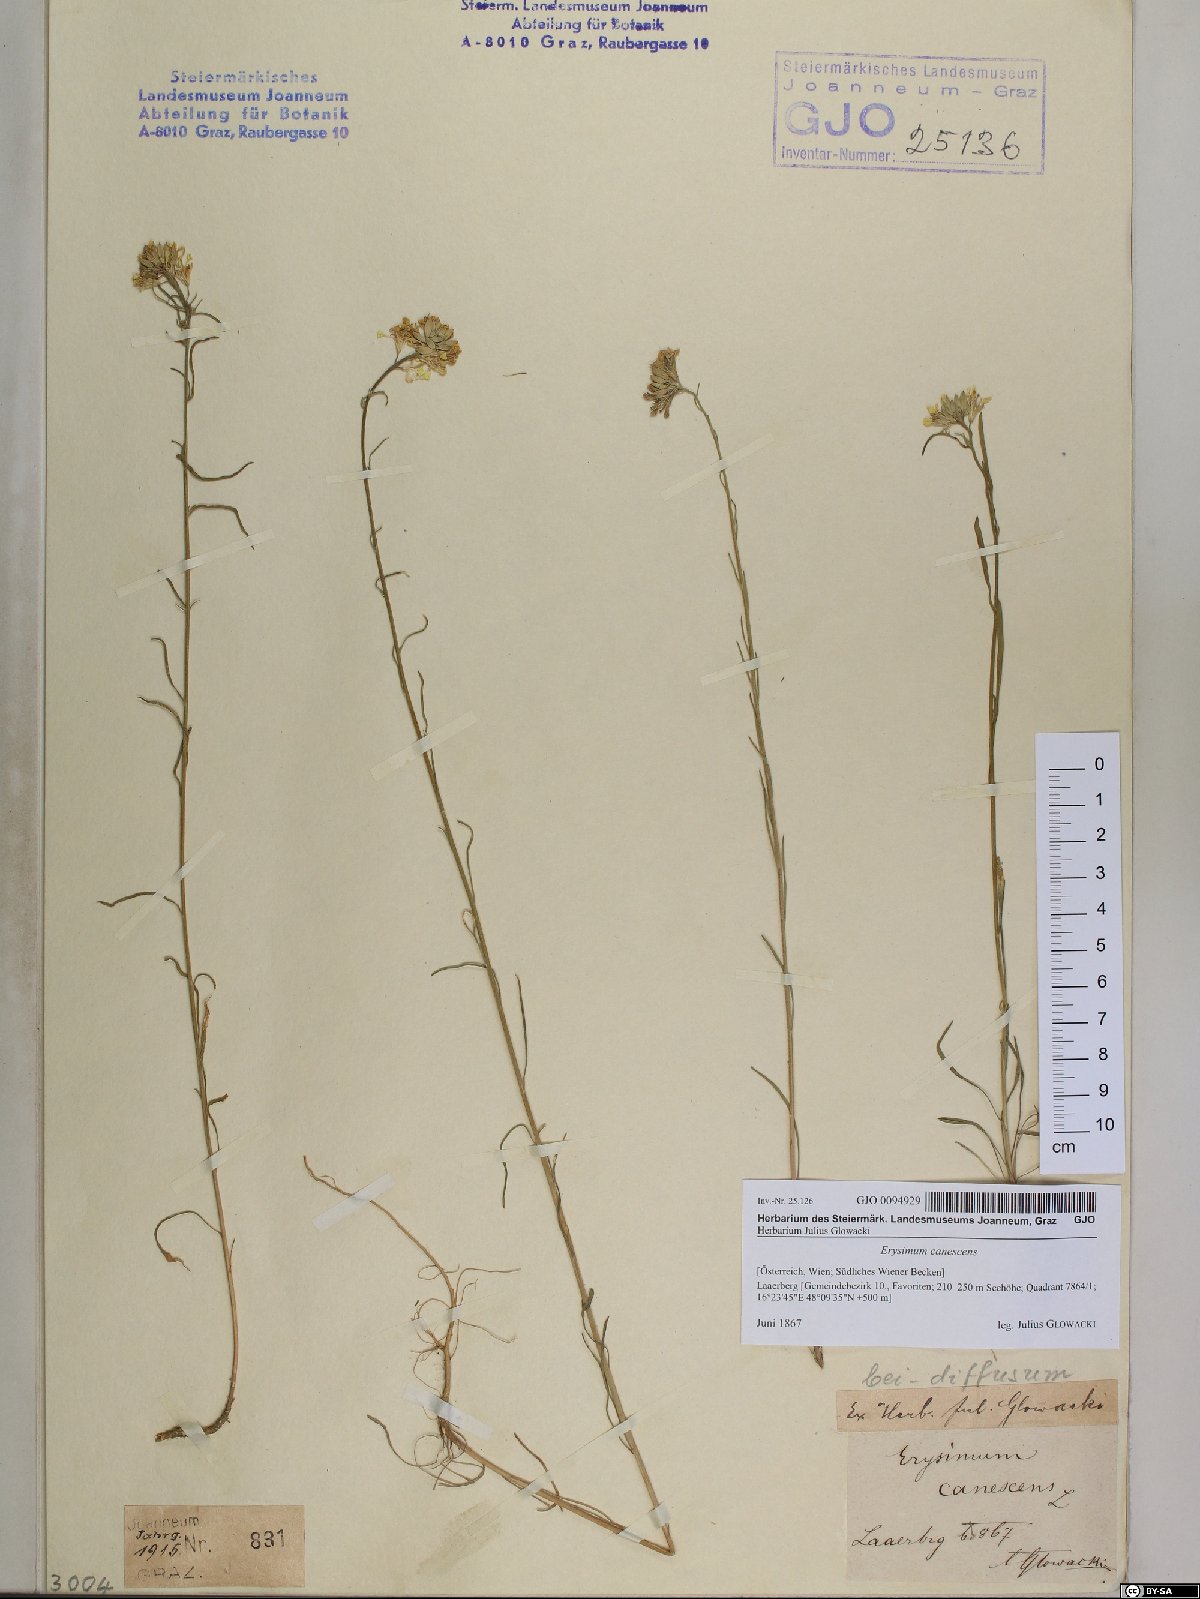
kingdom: Plantae
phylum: Tracheophyta
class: Magnoliopsida
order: Brassicales
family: Brassicaceae
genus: Erysimum
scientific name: Erysimum diffusum
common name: Diffuse wallflower
